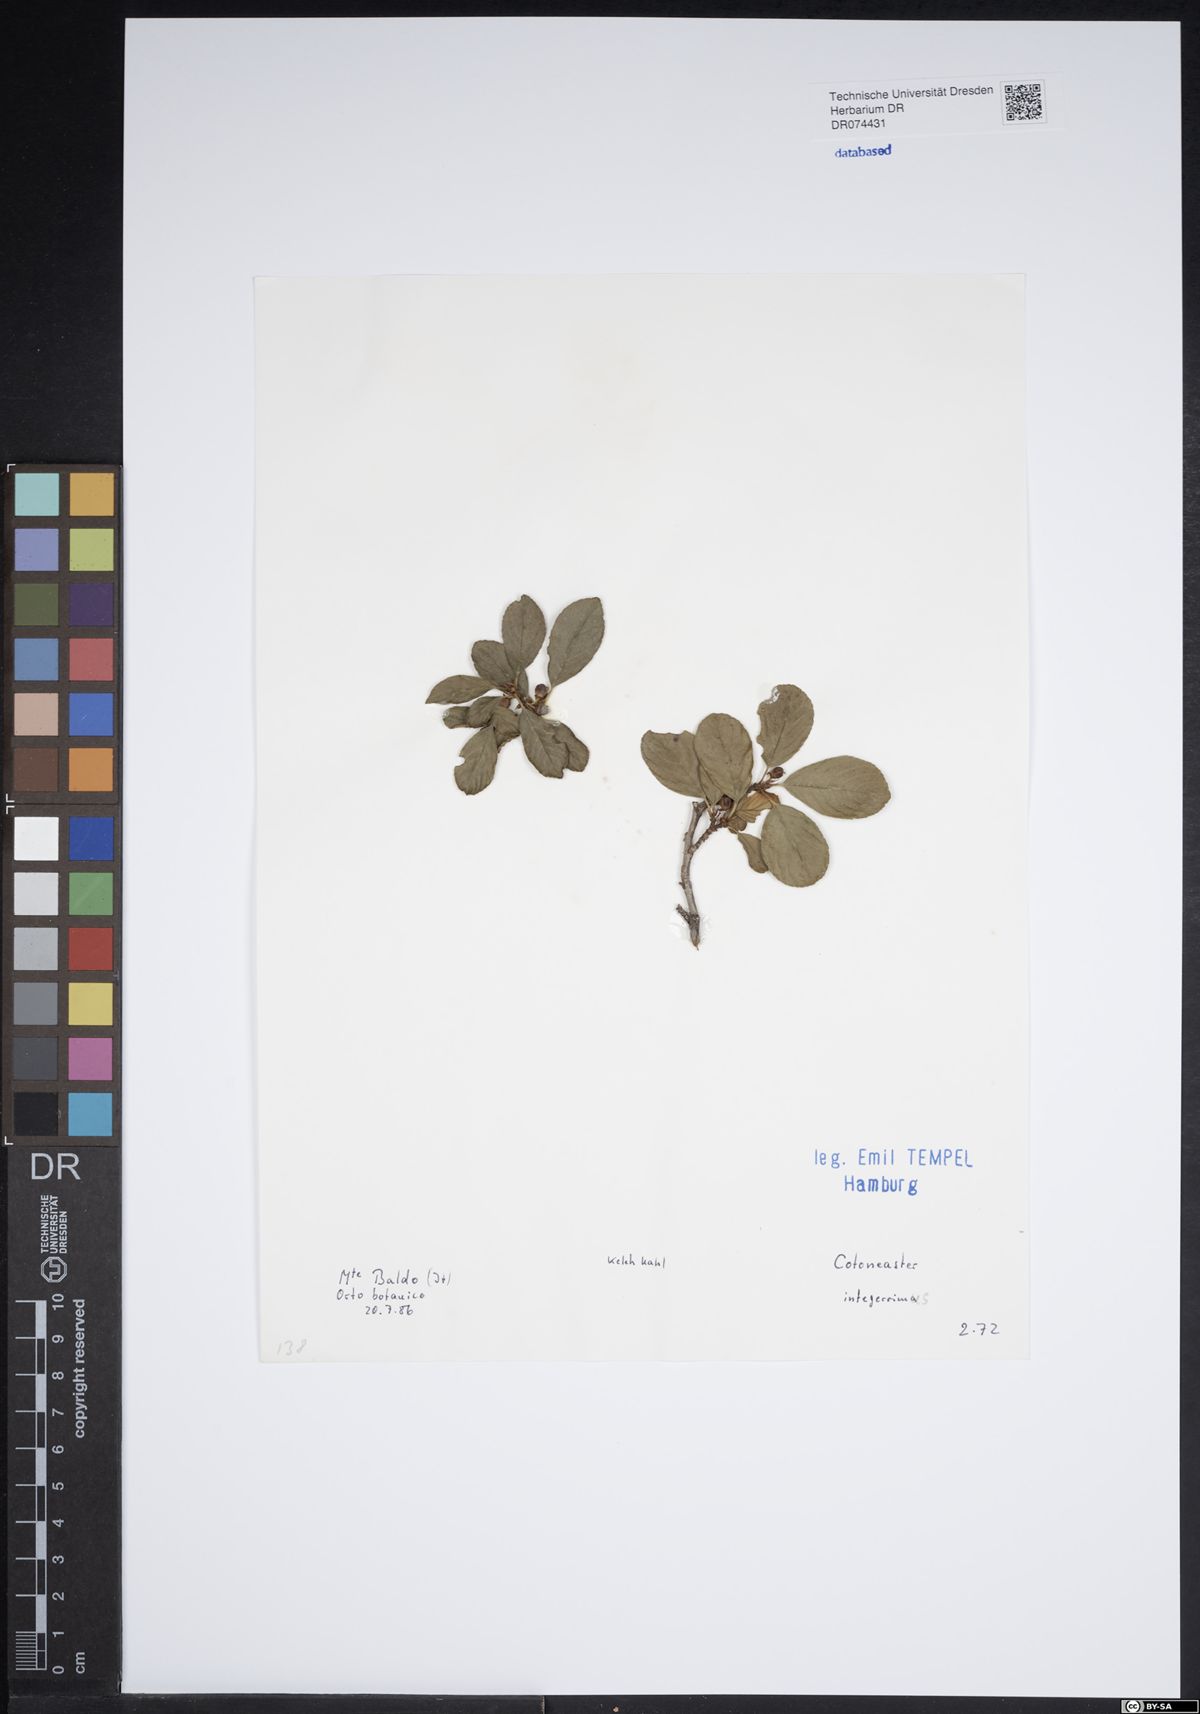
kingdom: Plantae
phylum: Tracheophyta
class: Magnoliopsida
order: Rosales
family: Rosaceae
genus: Cotoneaster
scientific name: Cotoneaster integerrimus
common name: Wild cotoneaster
